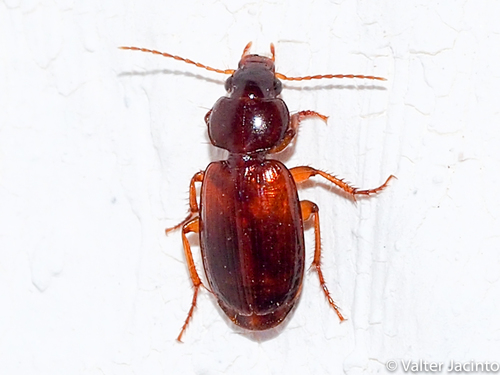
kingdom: Animalia
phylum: Arthropoda
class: Insecta
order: Coleoptera
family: Carabidae
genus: Masoreus
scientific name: Masoreus wetterhallii
